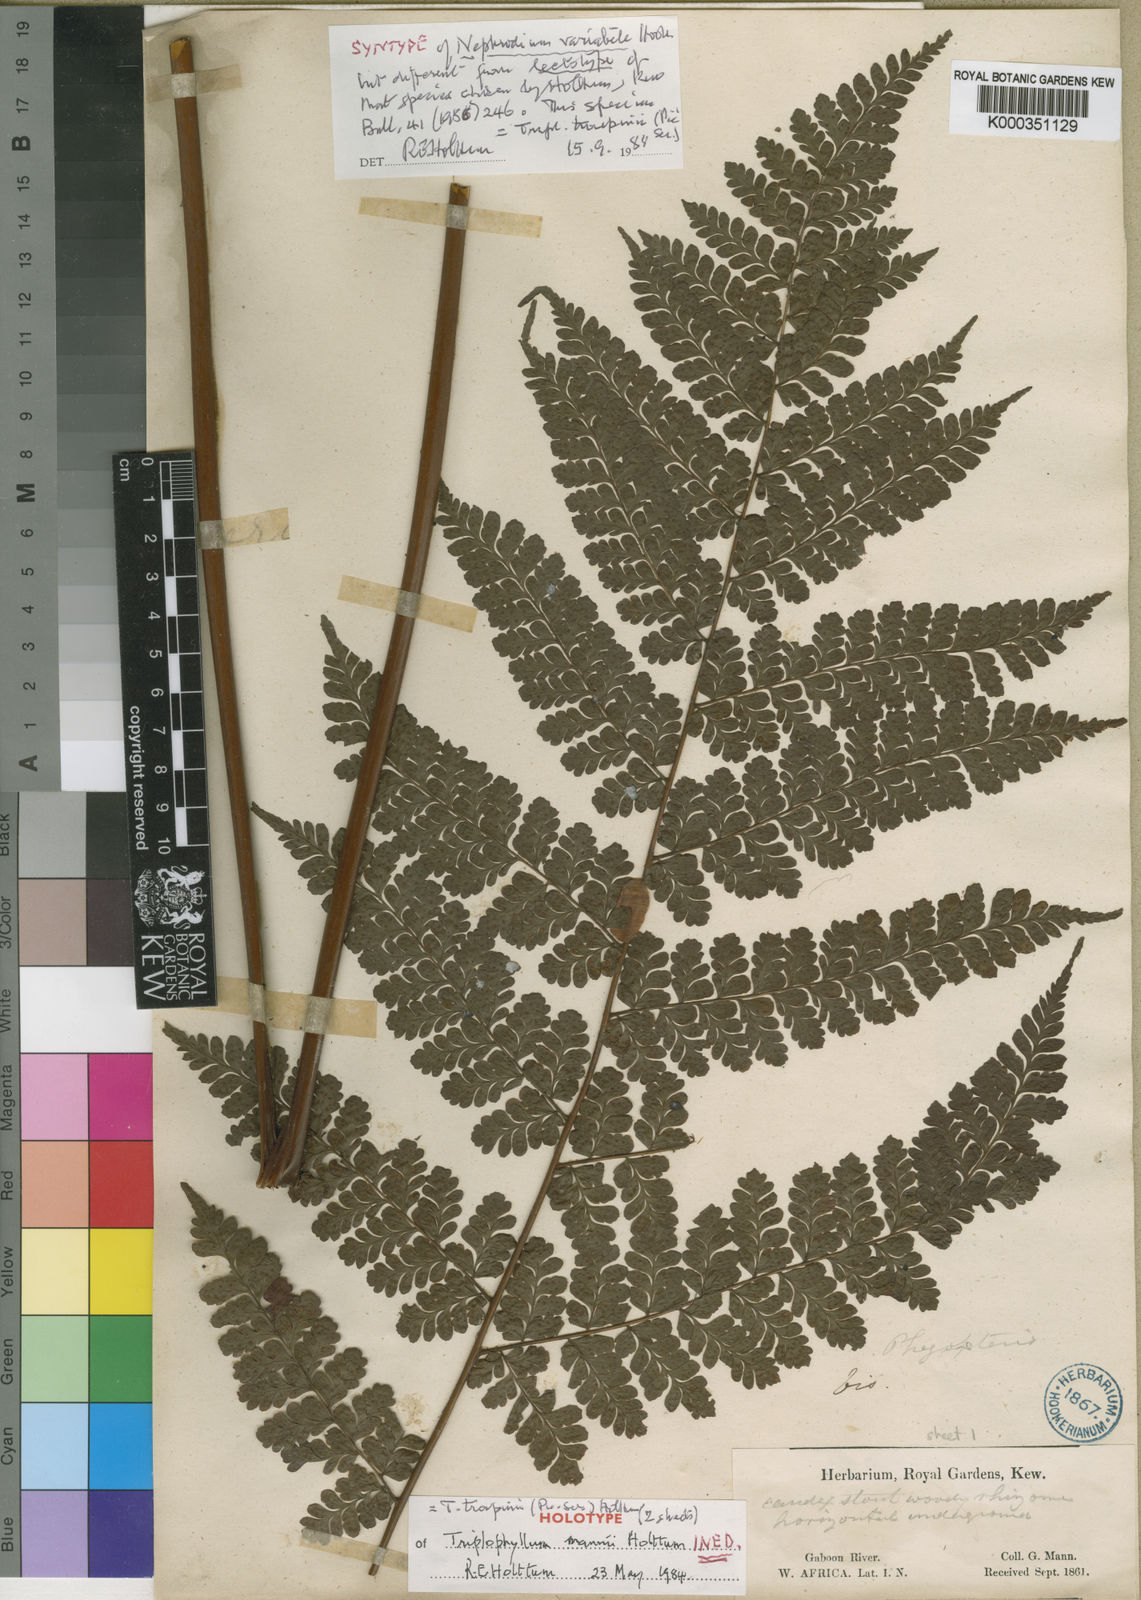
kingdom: Plantae
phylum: Tracheophyta
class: Polypodiopsida
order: Polypodiales
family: Tectariaceae
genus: Triplophyllum
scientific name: Triplophyllum troupinii
